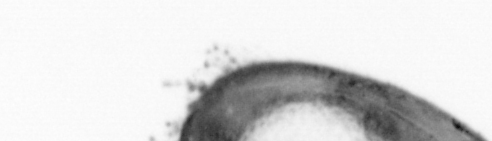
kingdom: Animalia
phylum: Chordata
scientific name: Chordata
